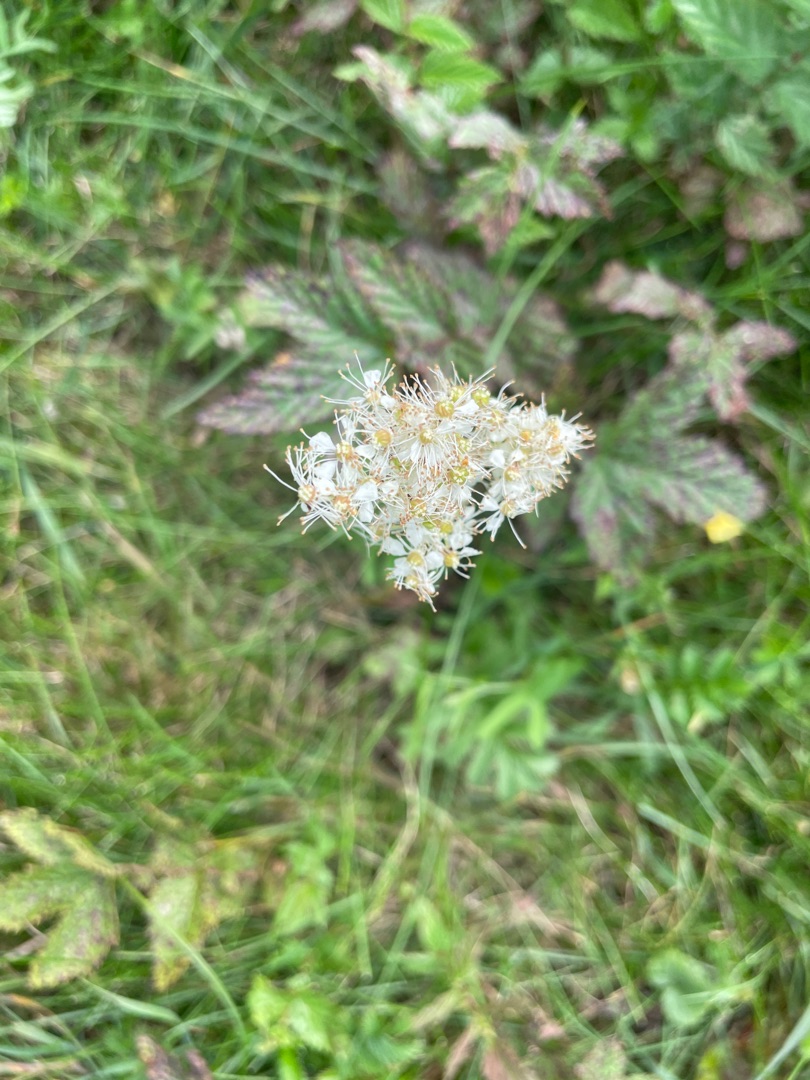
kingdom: Plantae
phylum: Tracheophyta
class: Magnoliopsida
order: Rosales
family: Rosaceae
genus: Filipendula
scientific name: Filipendula ulmaria
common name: Almindelig mjødurt
